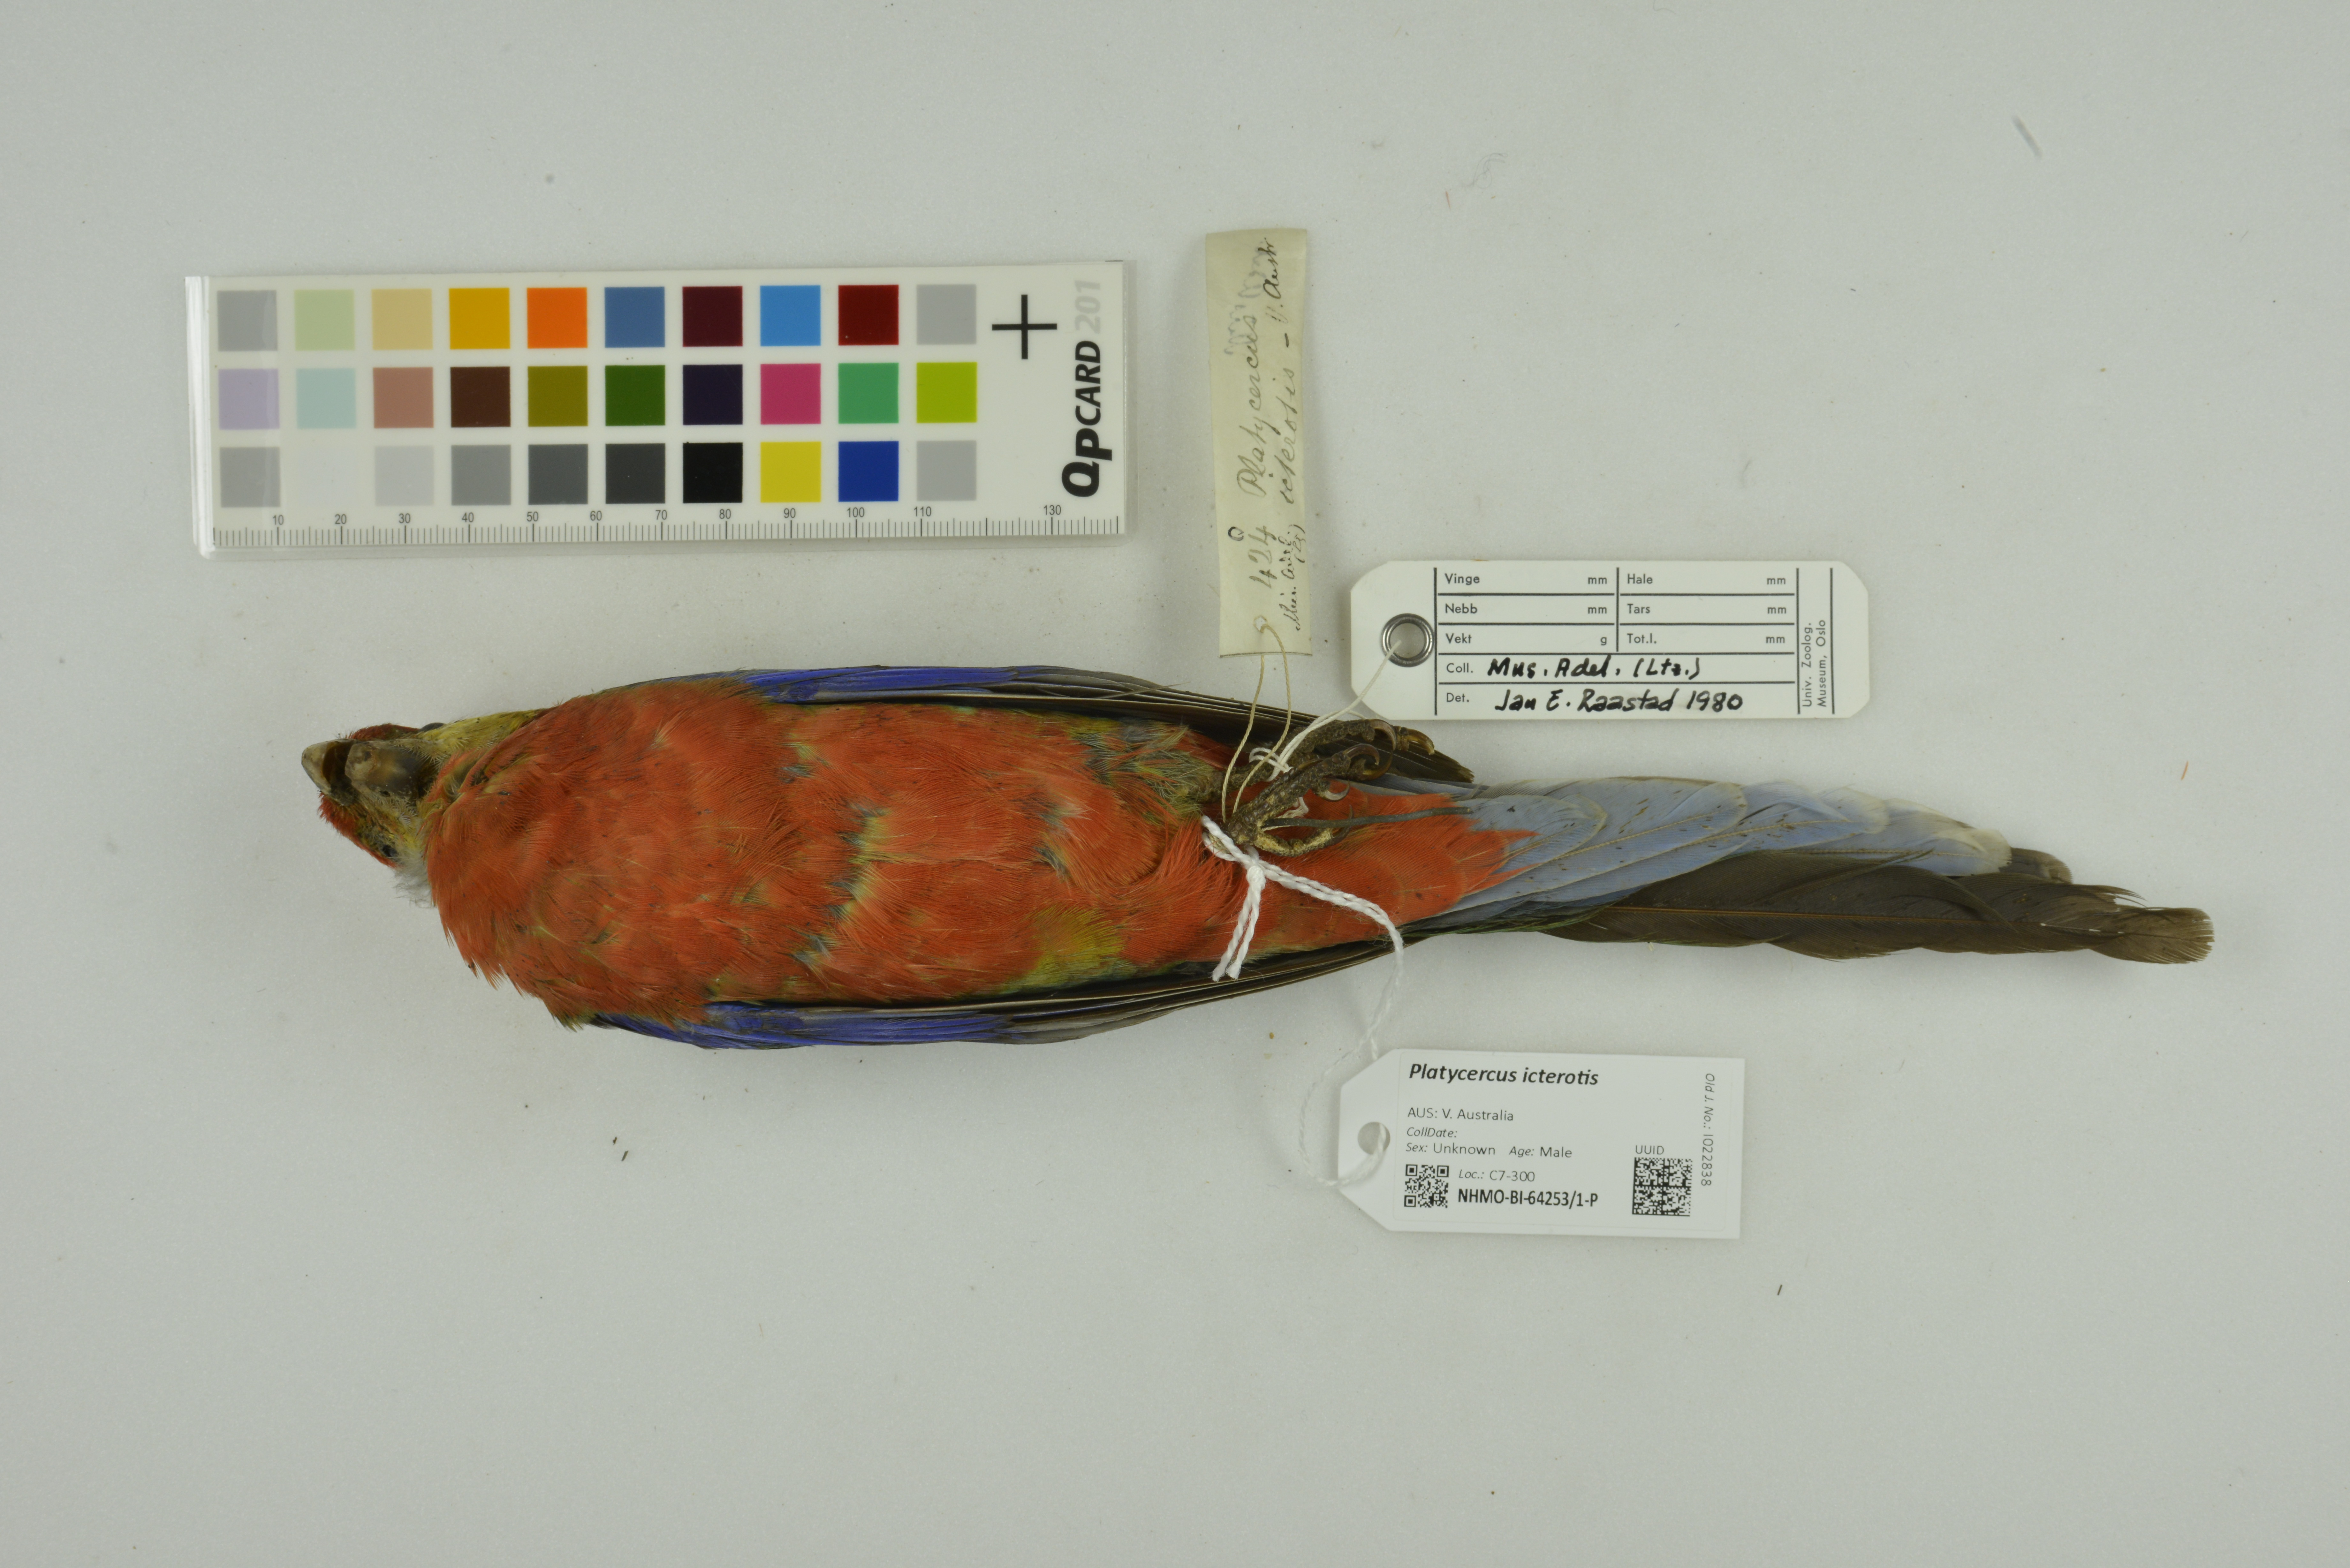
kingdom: Animalia
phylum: Chordata
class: Aves
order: Psittaciformes
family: Psittacidae
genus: Platycercus
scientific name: Platycercus icterotis
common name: Western rosella
